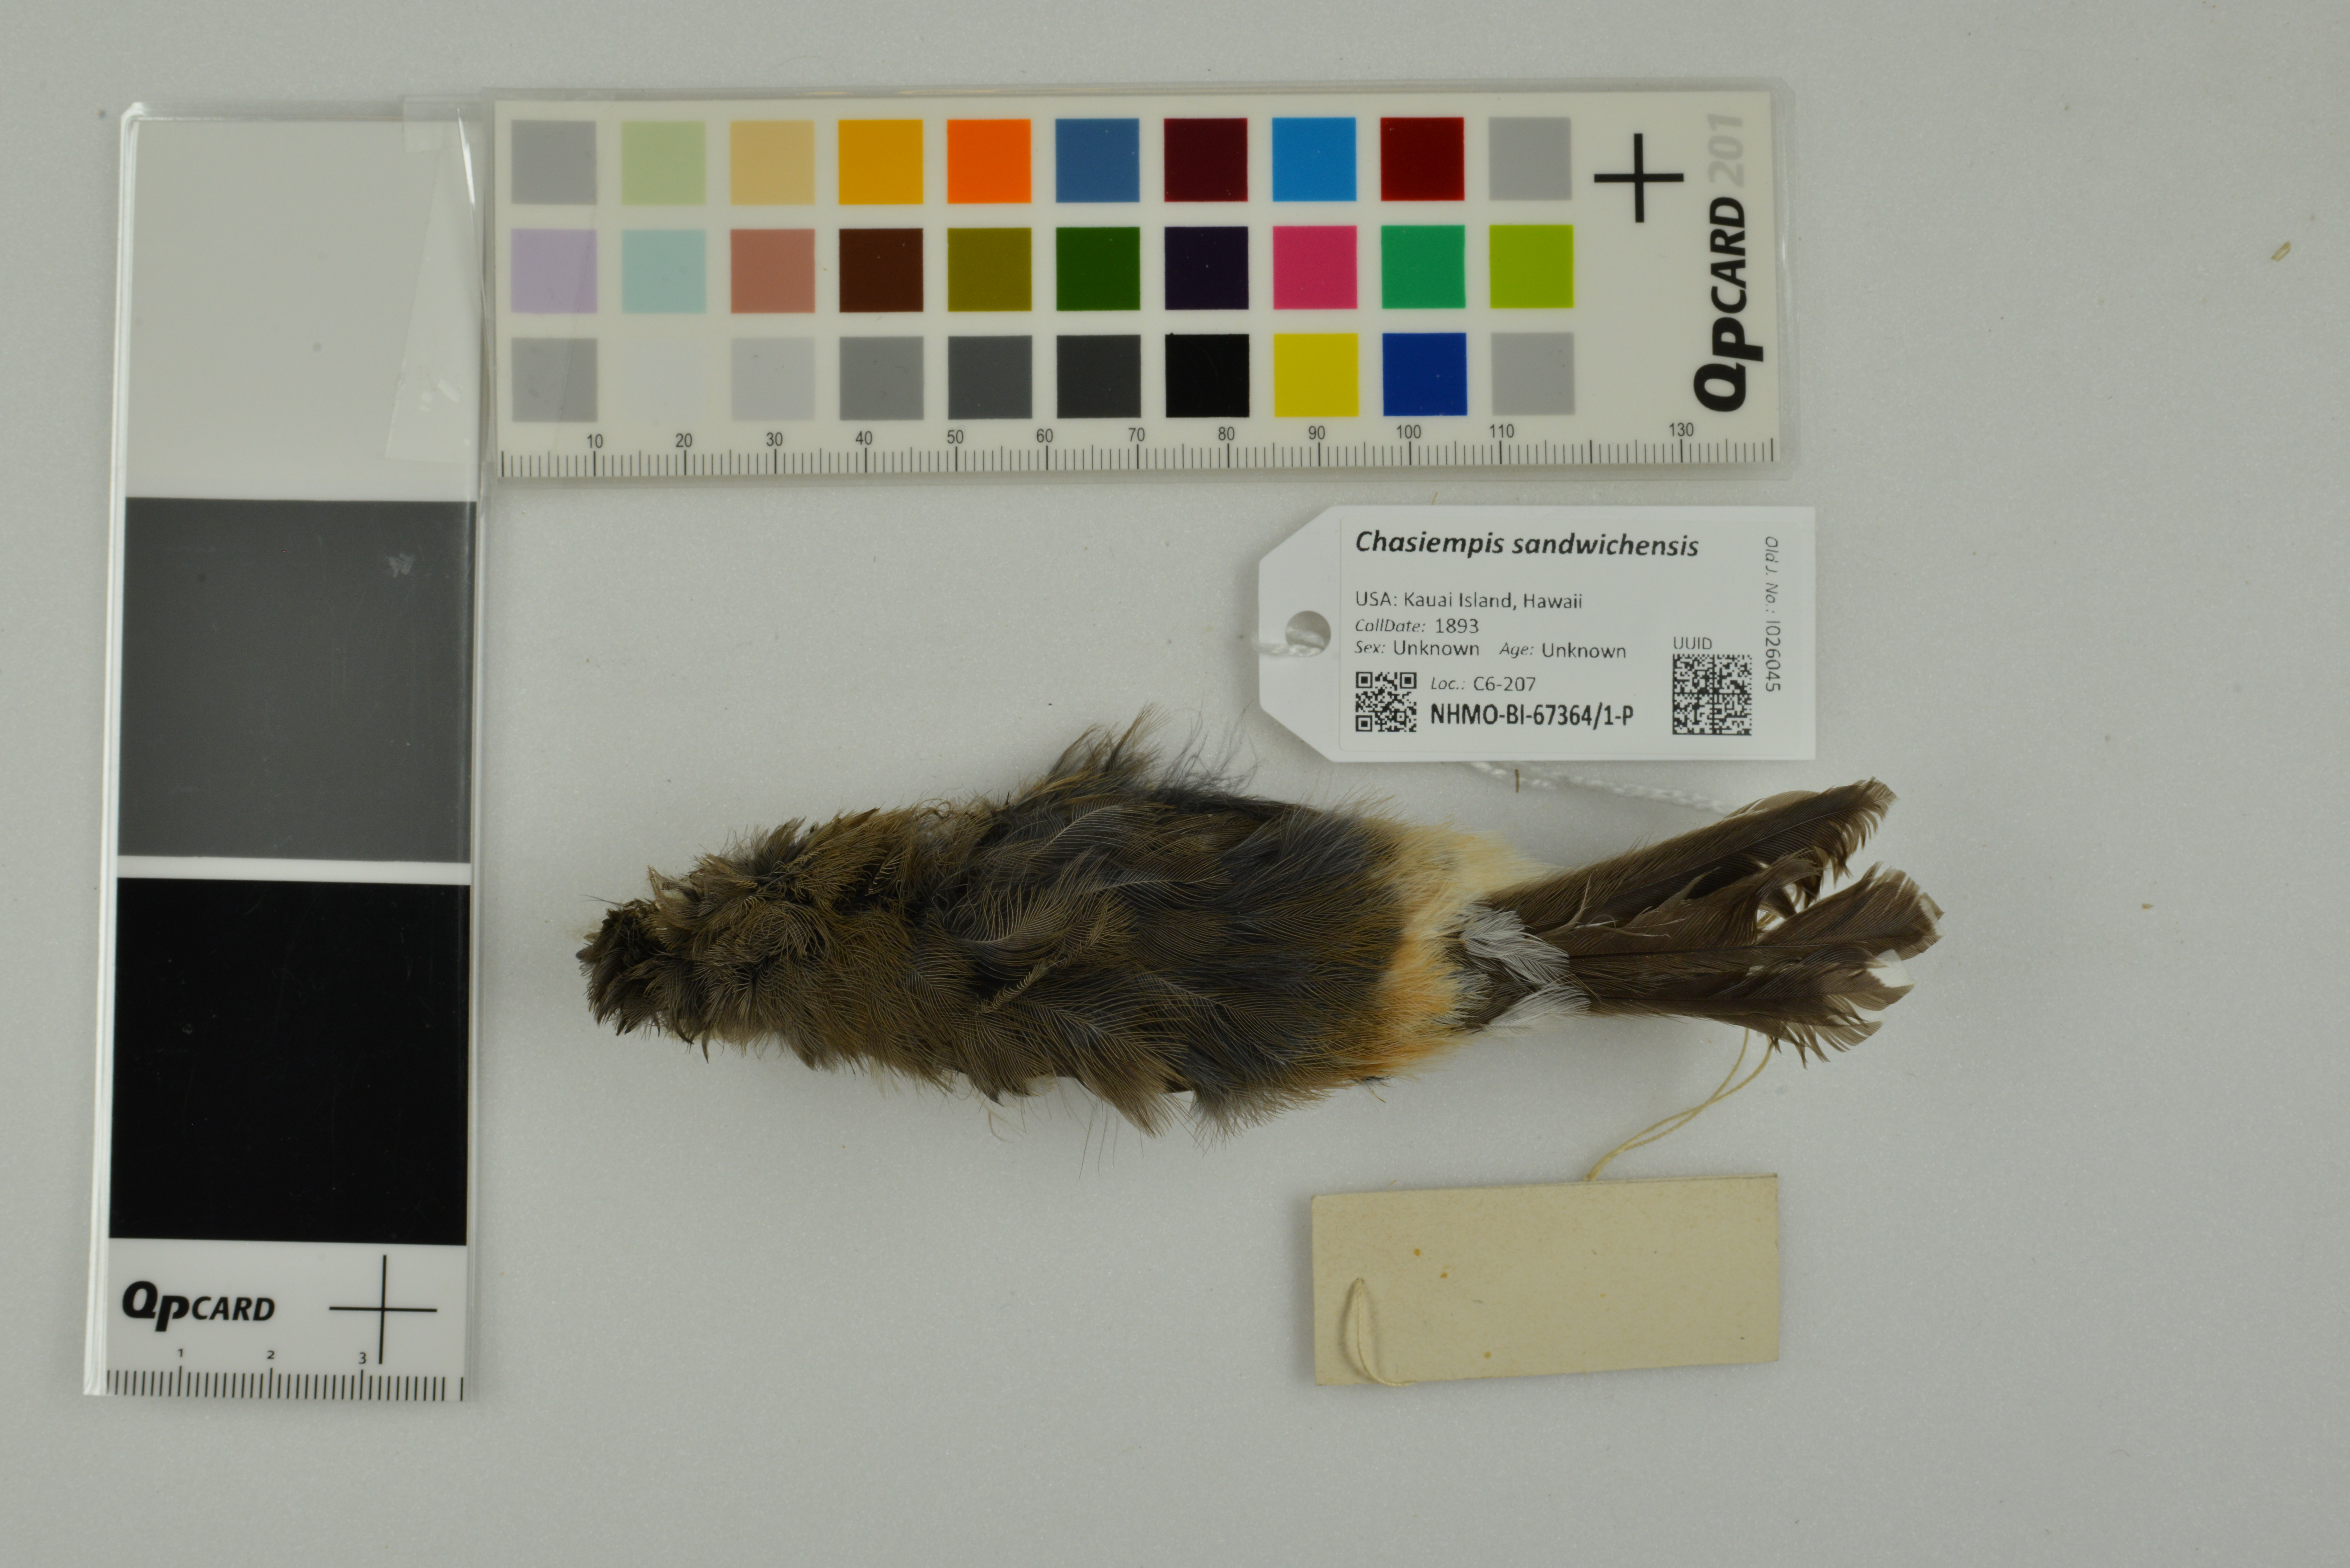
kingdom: Animalia
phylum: Chordata
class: Aves
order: Passeriformes
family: Monarchidae
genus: Chasiempis
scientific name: Chasiempis sandwichensis
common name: Hawaii elepaio
